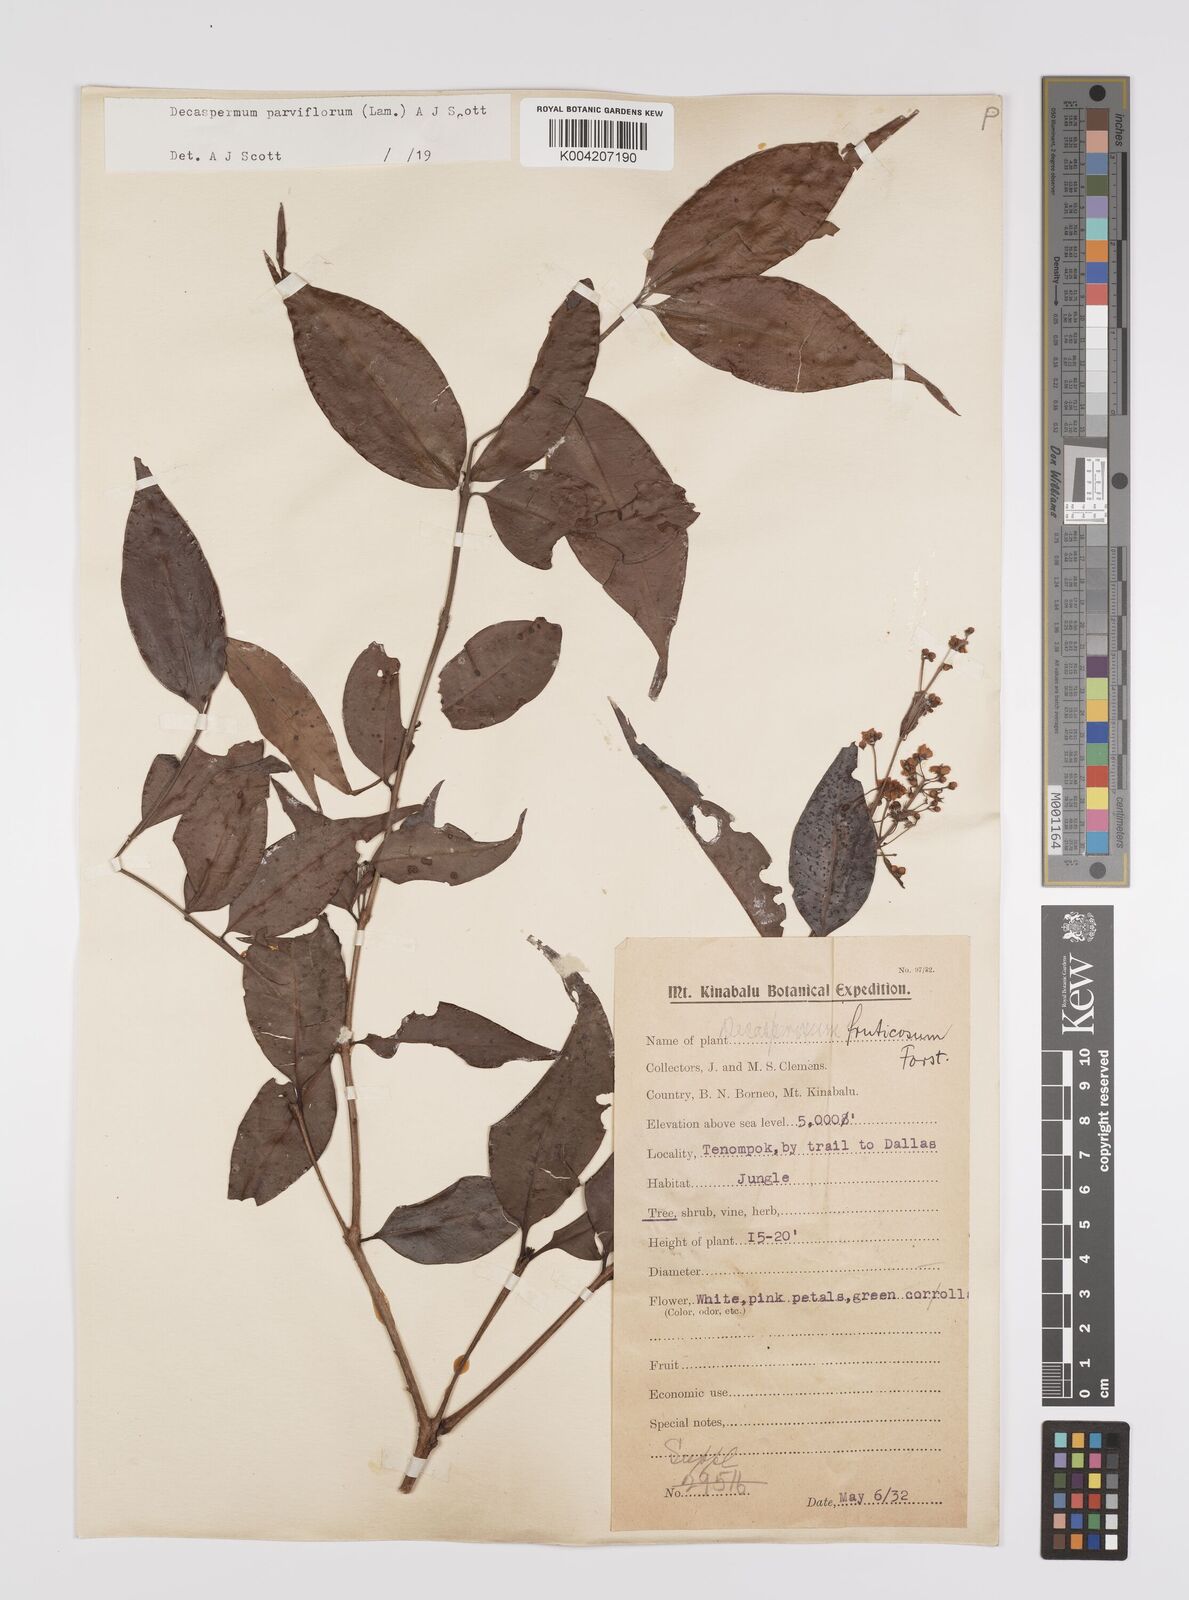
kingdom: Plantae
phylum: Tracheophyta
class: Magnoliopsida
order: Myrtales
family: Myrtaceae
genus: Decaspermum
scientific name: Decaspermum parviflorum
